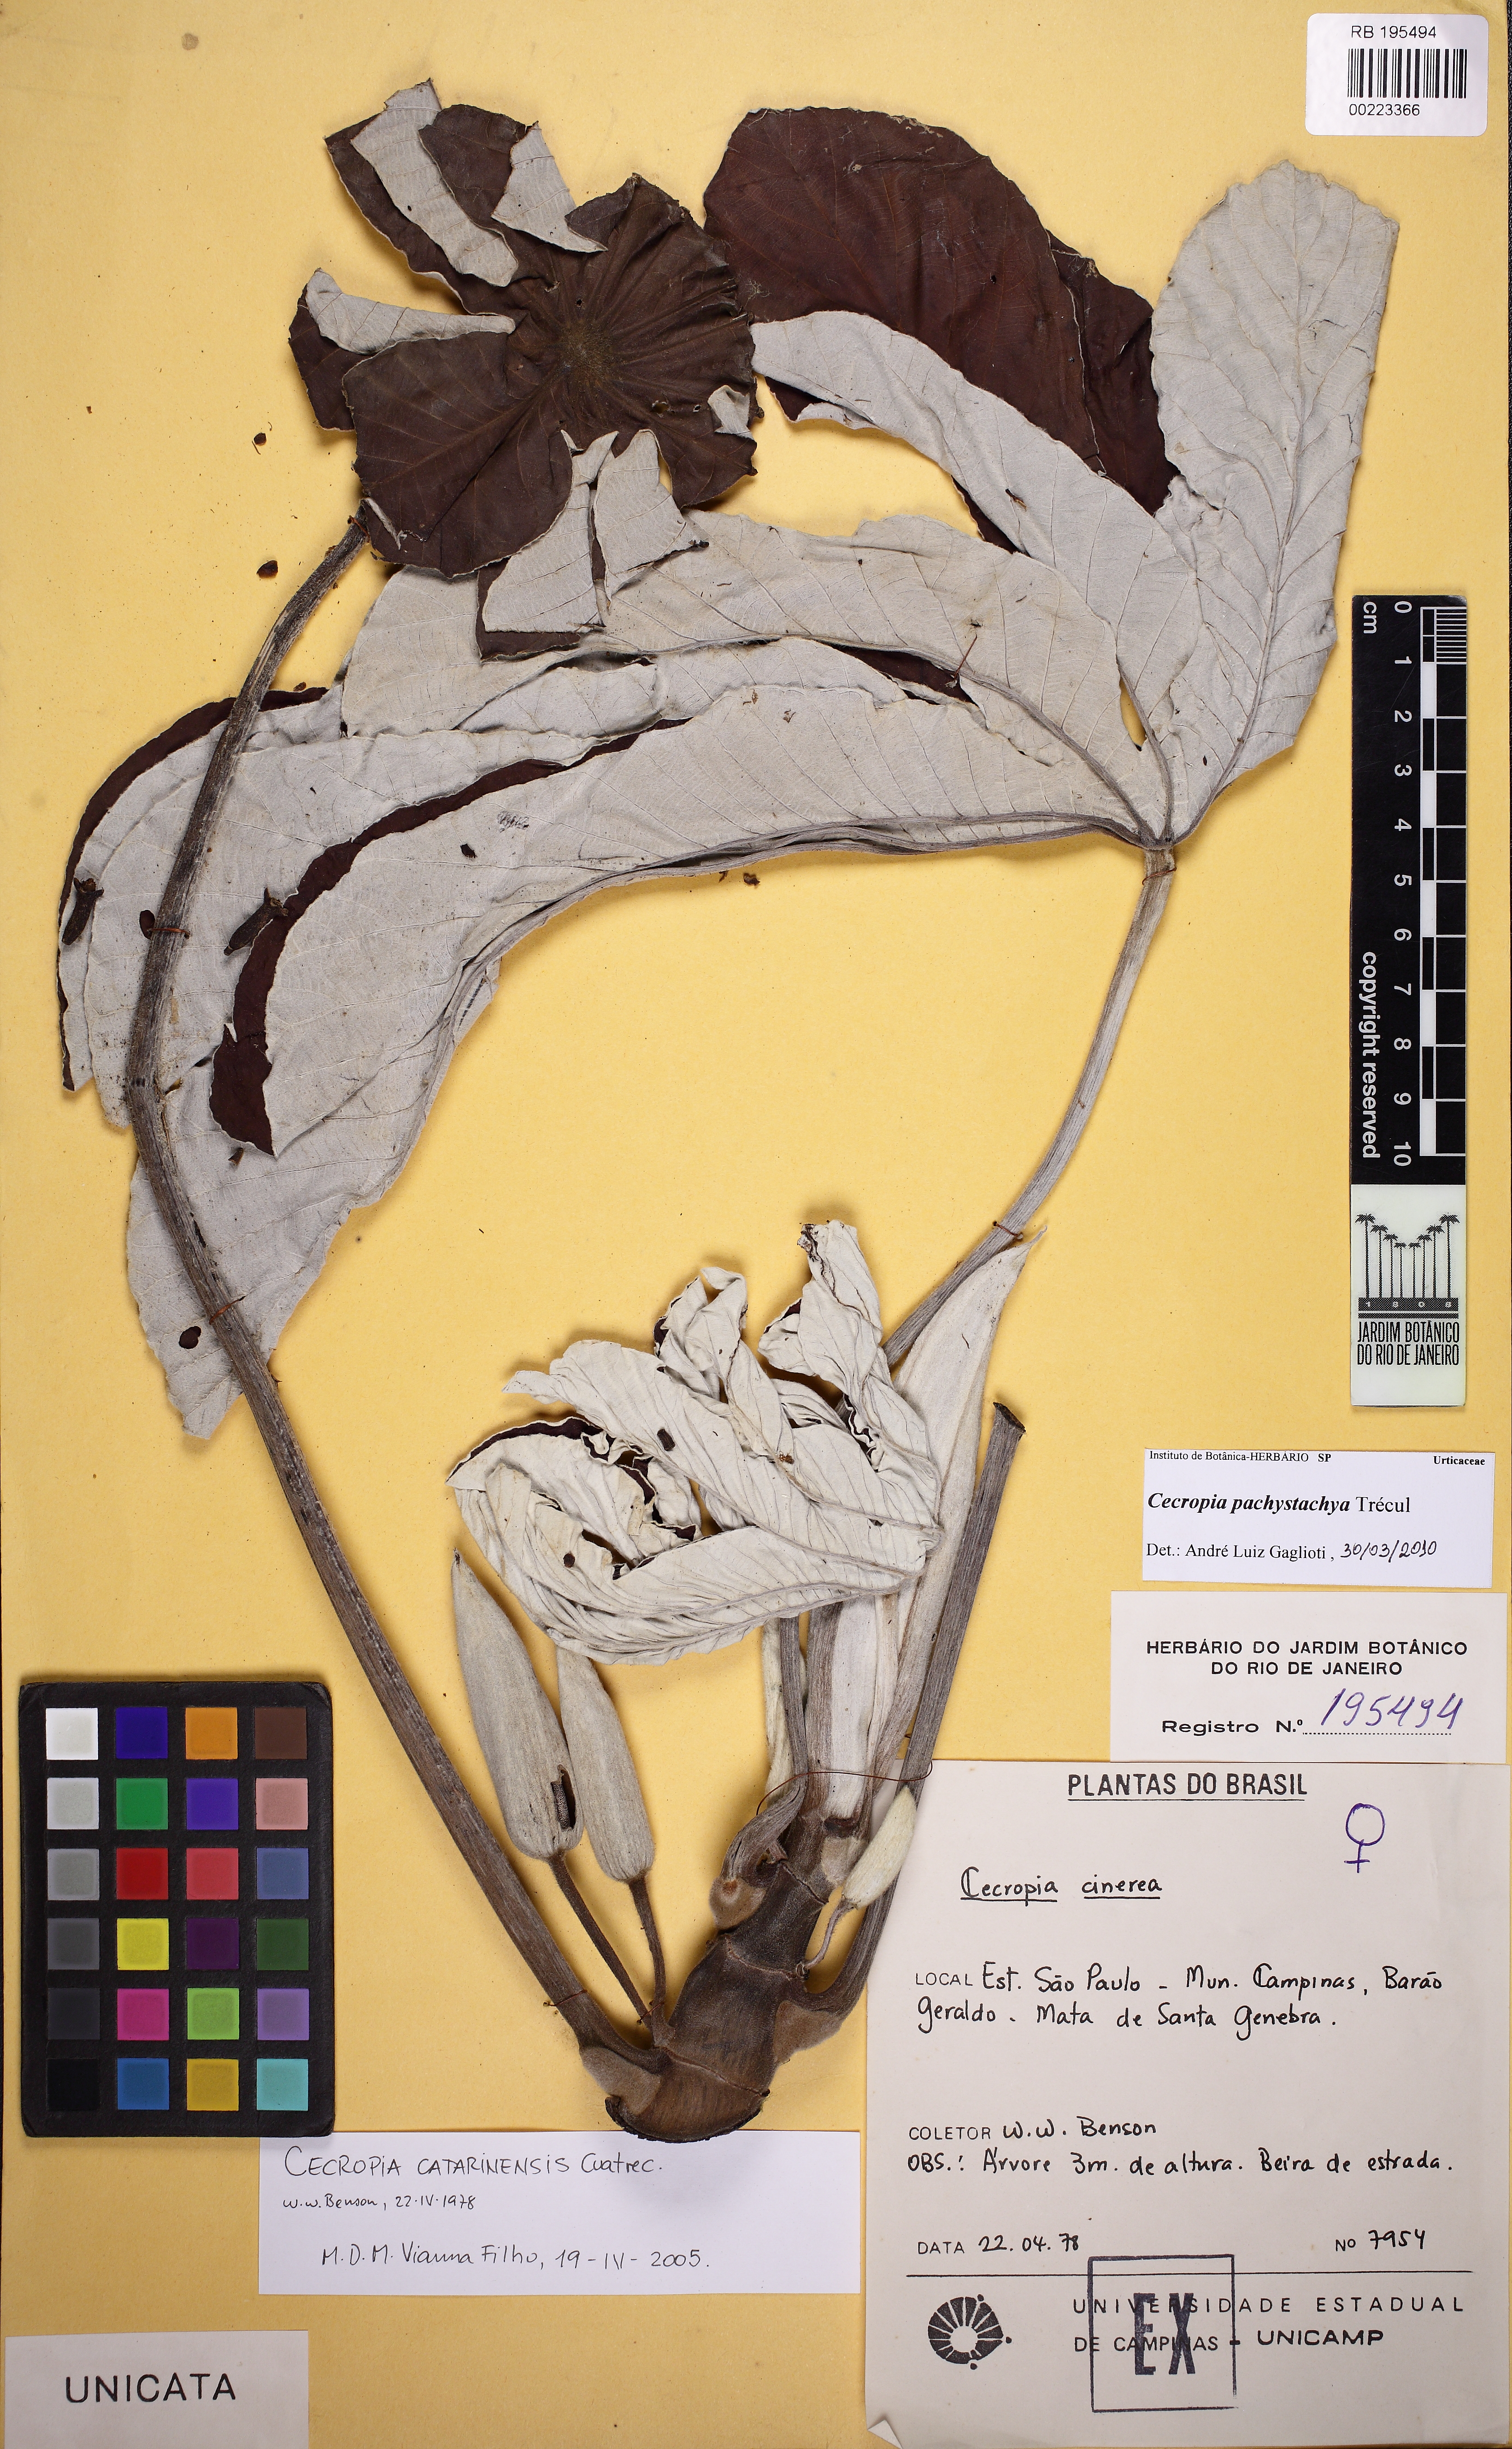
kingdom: Plantae
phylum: Tracheophyta
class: Magnoliopsida
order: Rosales
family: Urticaceae
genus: Cecropia
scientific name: Cecropia pachystachya
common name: Ambay pumpwood
